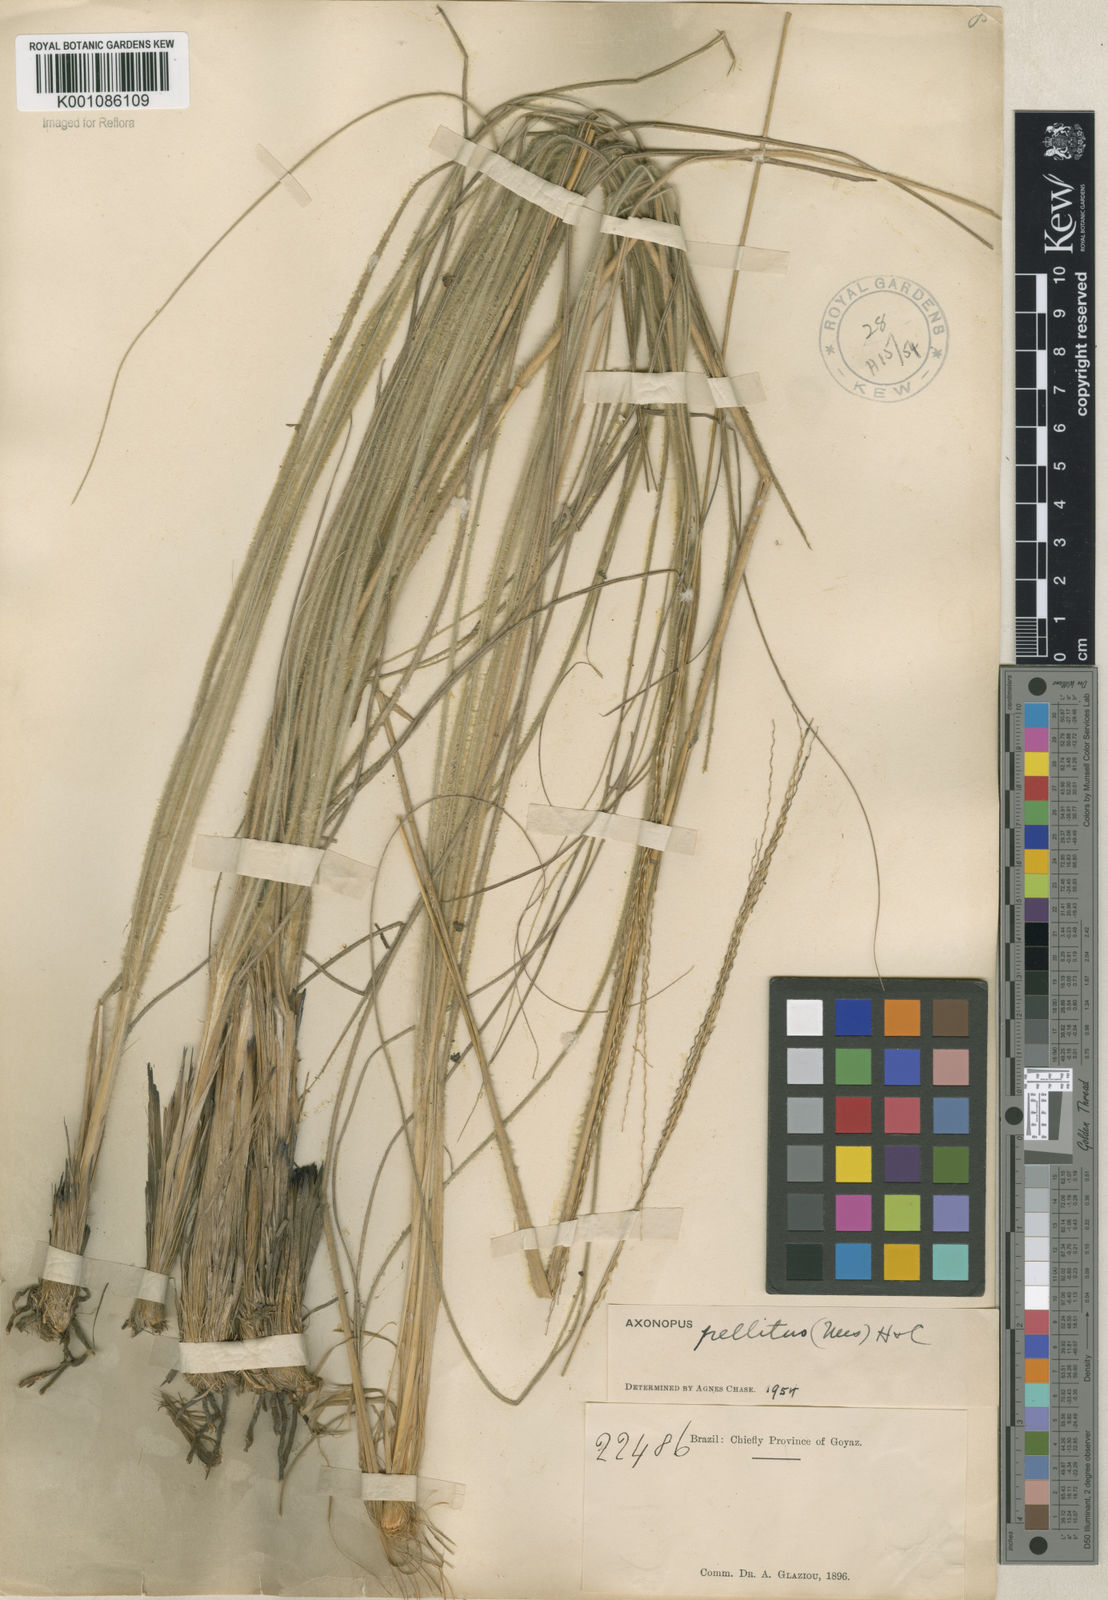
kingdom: Plantae
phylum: Tracheophyta
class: Liliopsida
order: Poales
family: Poaceae
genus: Axonopus
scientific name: Axonopus siccus
